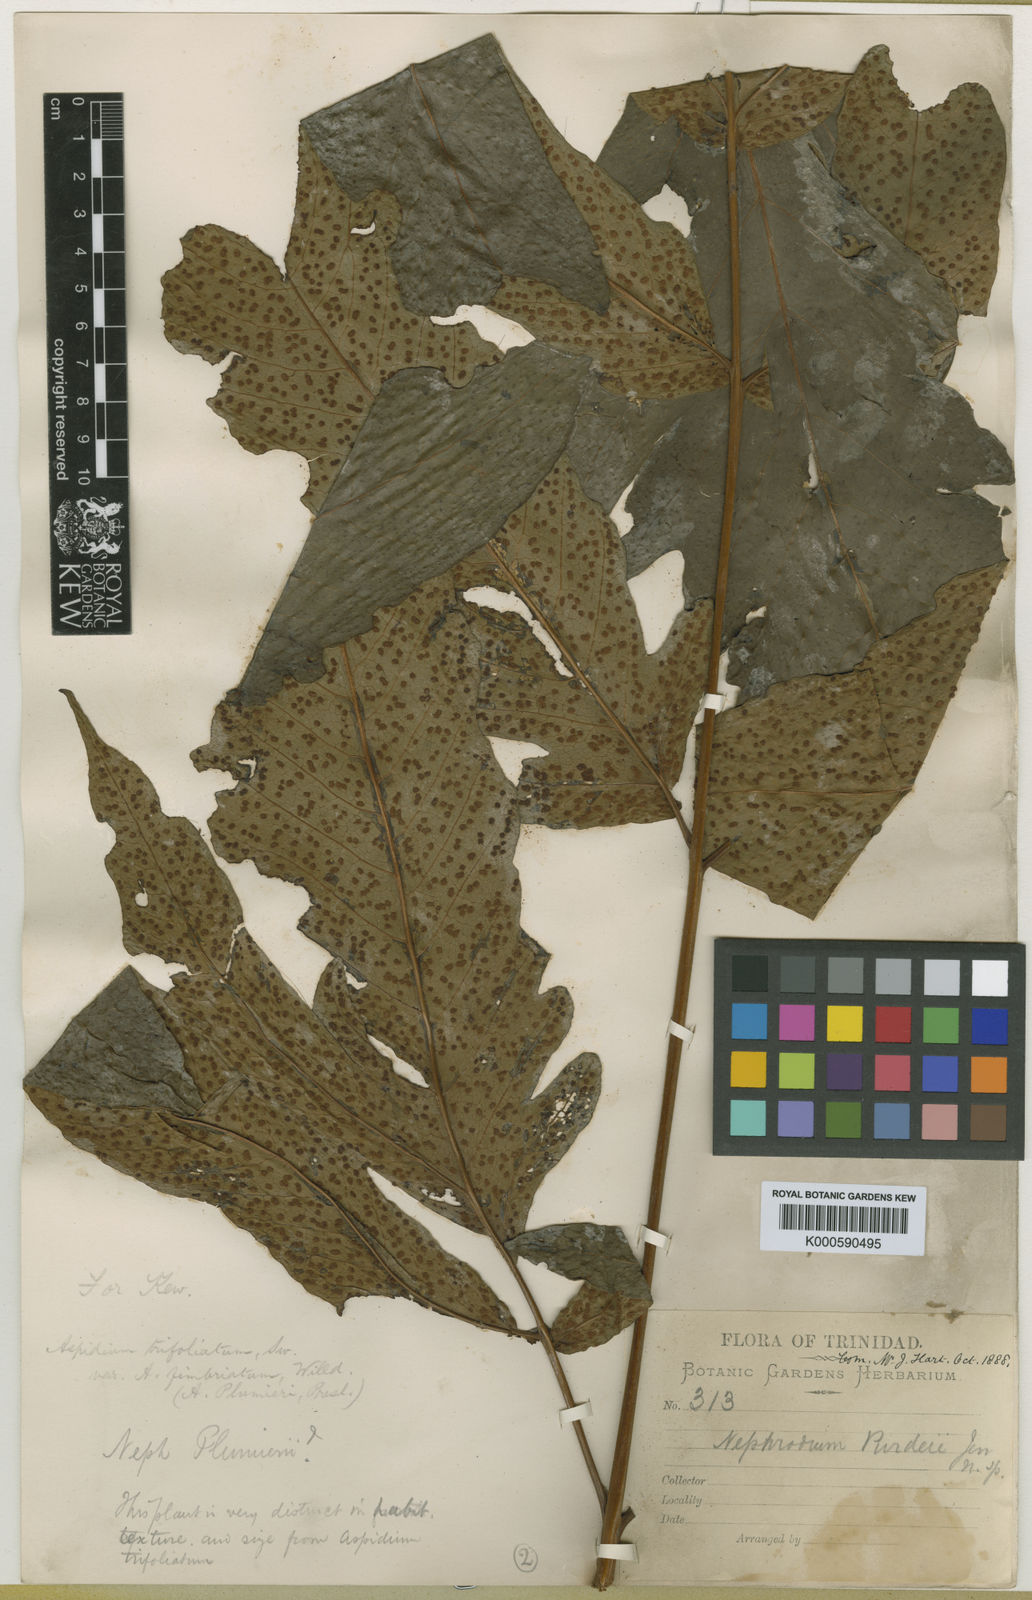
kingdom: Plantae
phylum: Tracheophyta
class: Polypodiopsida
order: Polypodiales
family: Tectariaceae
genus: Tectaria
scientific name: Tectaria trifoliata
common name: Threeleaf halberd fern
